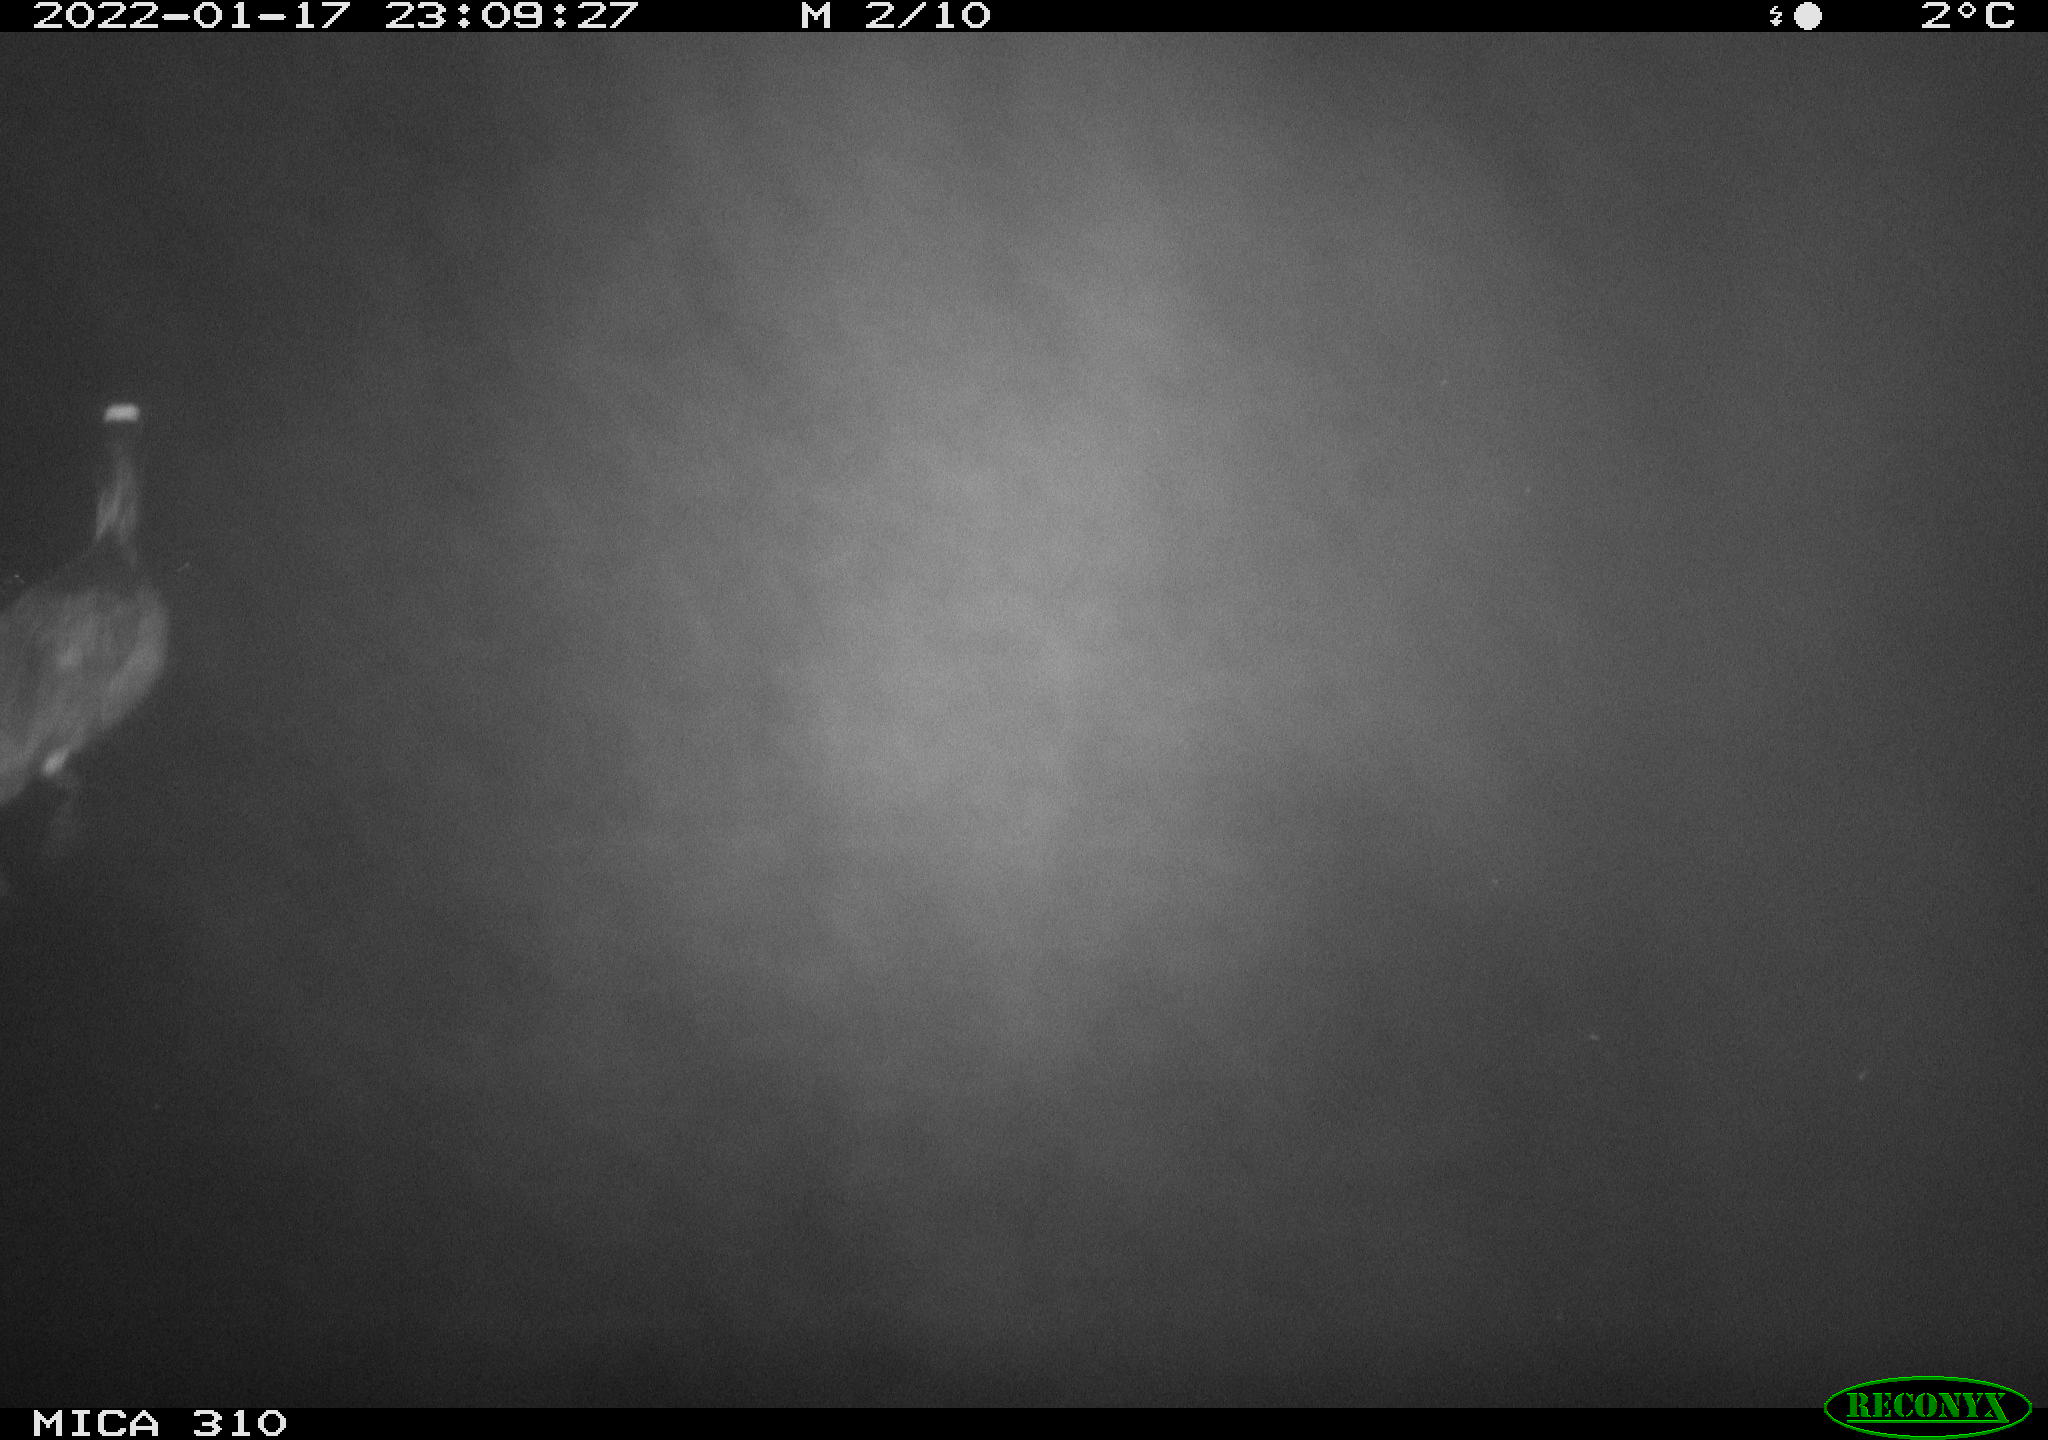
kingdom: Animalia
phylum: Chordata
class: Aves
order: Gruiformes
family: Rallidae
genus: Fulica
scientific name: Fulica atra
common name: Eurasian coot
